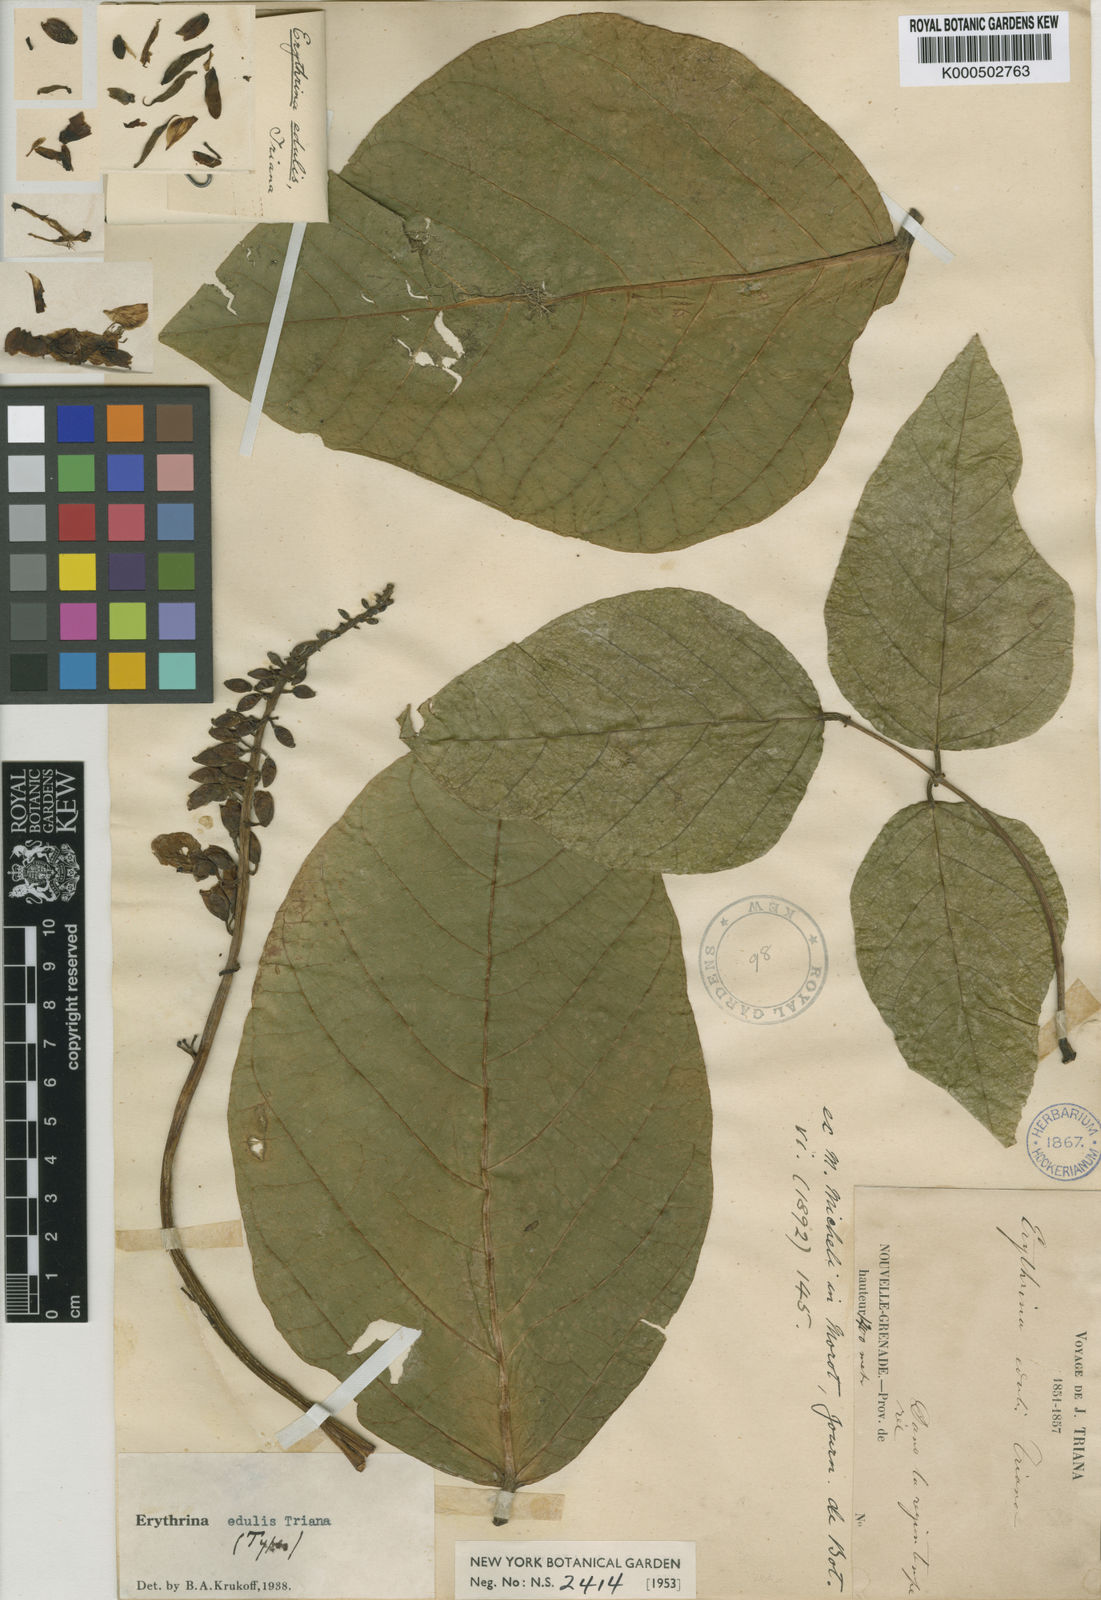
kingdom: Plantae
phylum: Tracheophyta
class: Magnoliopsida
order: Fabales
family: Fabaceae
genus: Erythrina
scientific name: Erythrina edulis
